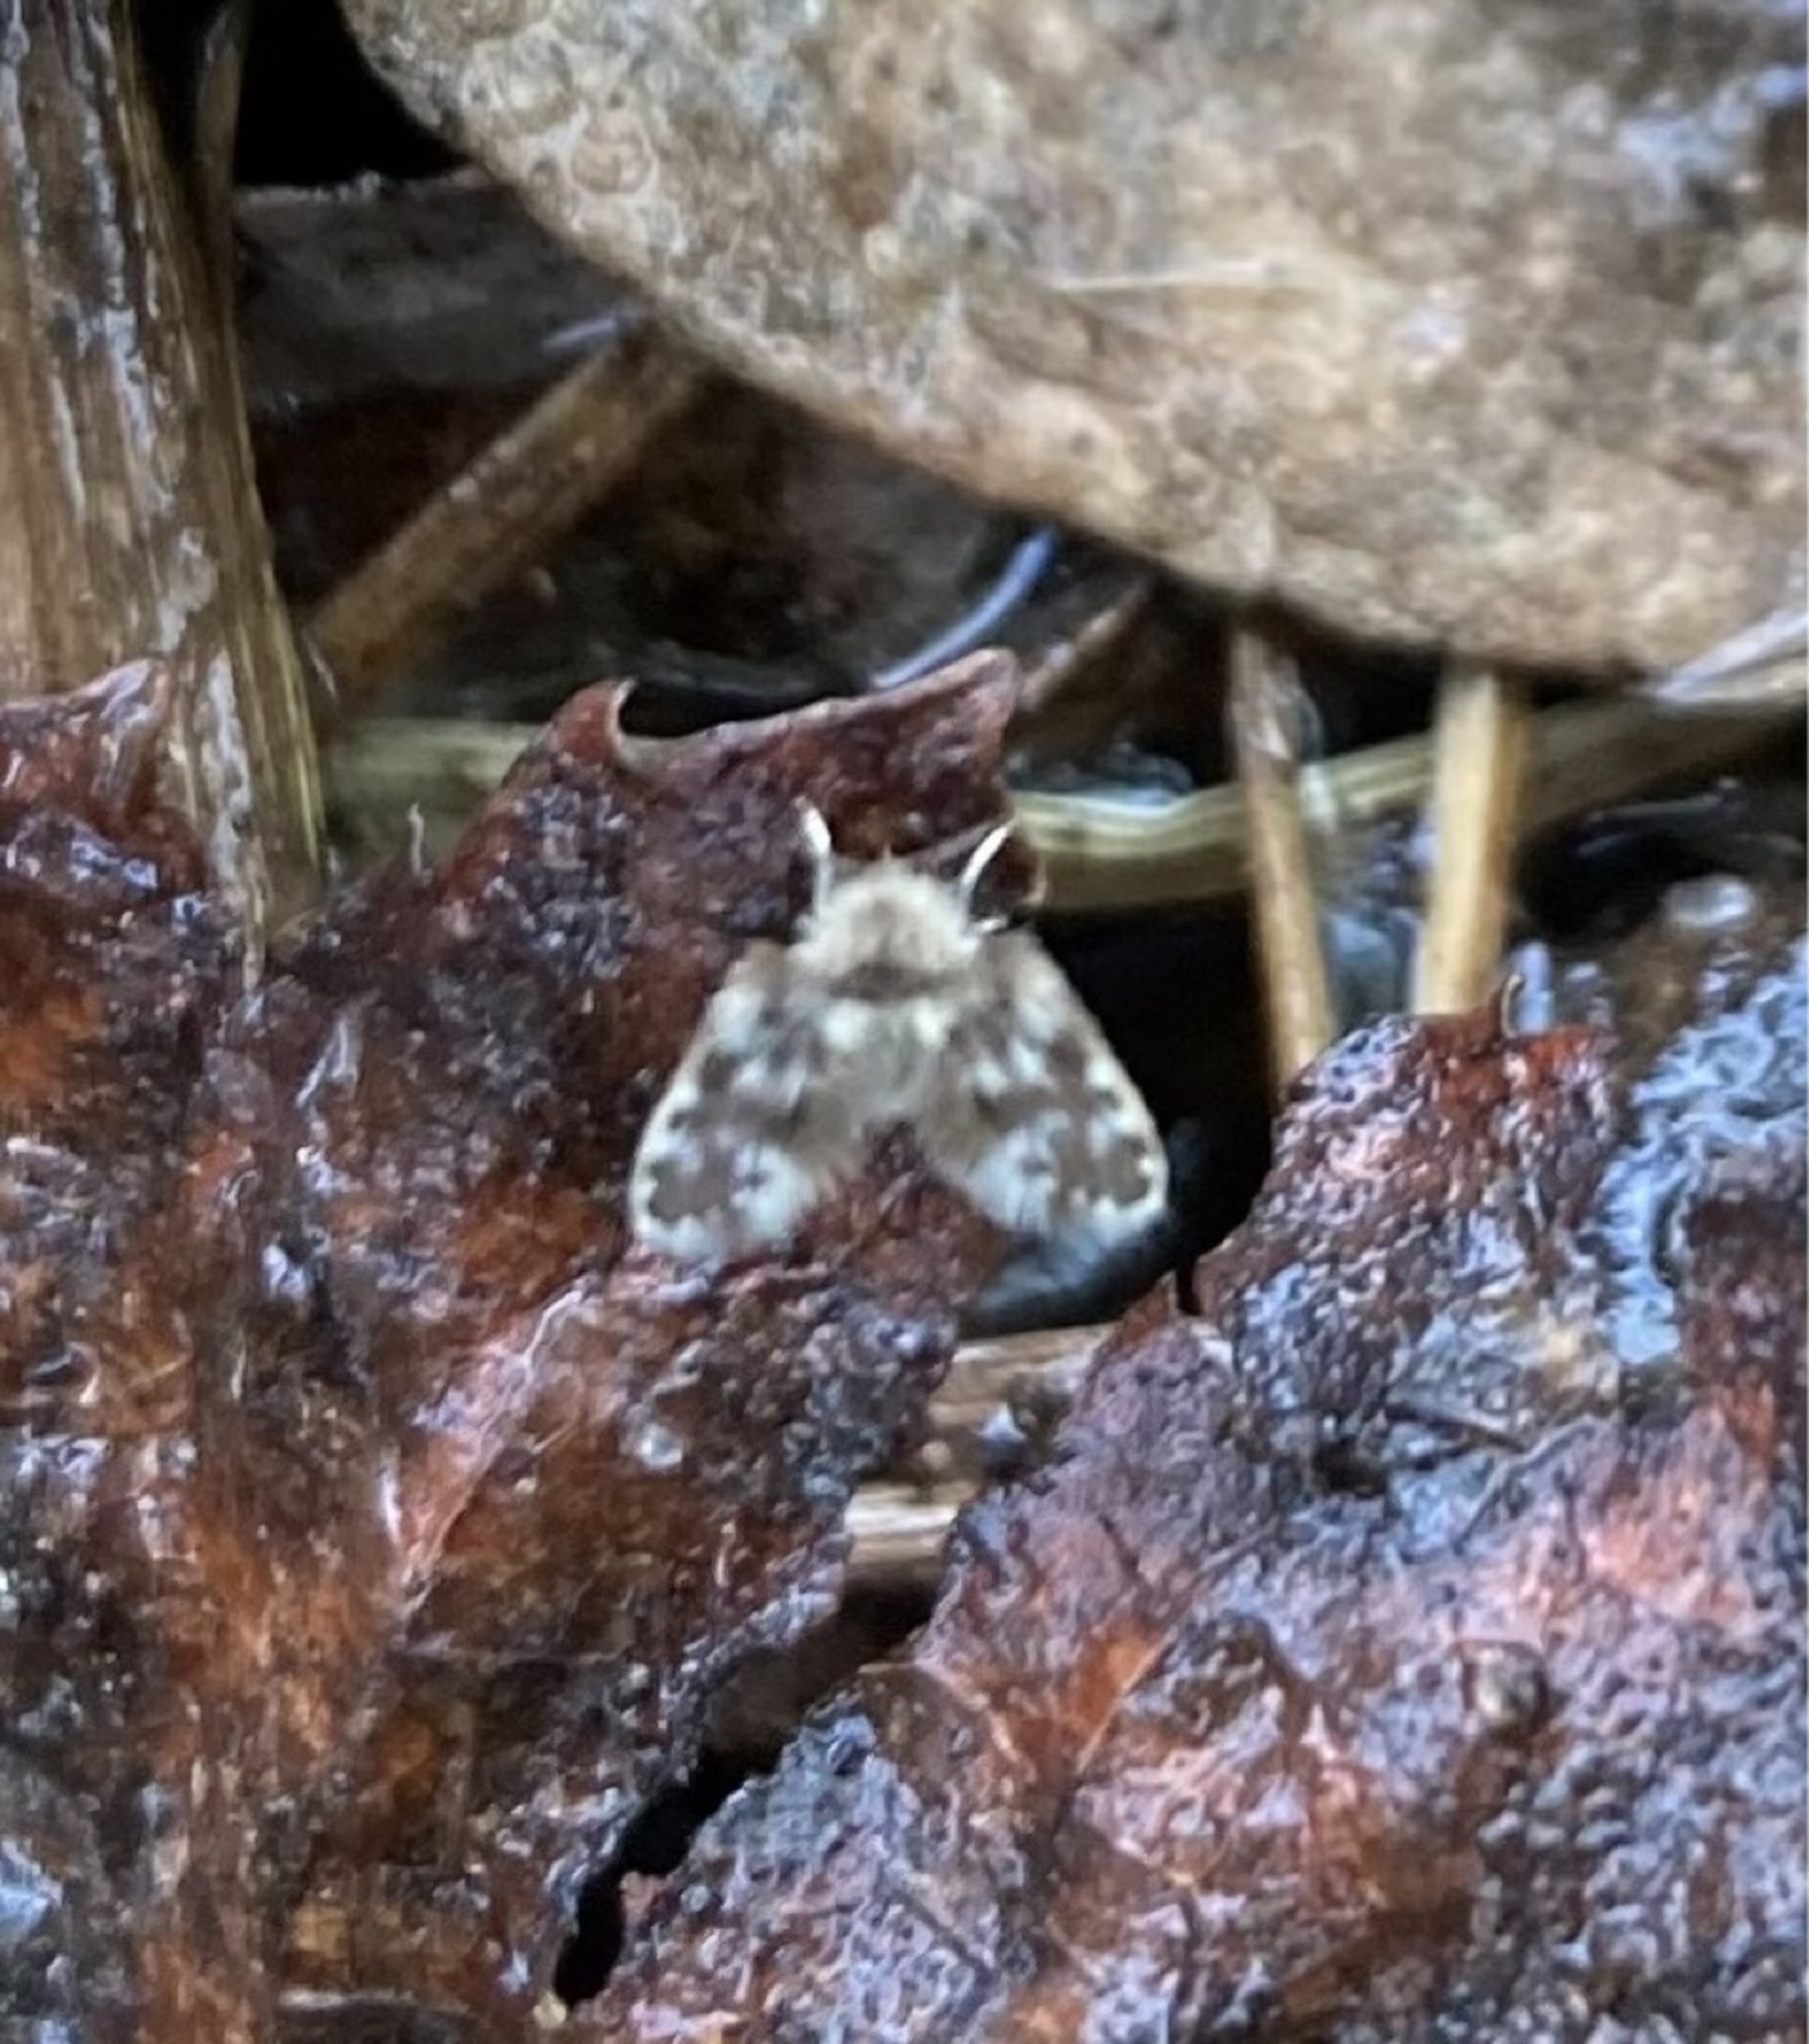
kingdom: Animalia
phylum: Arthropoda
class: Insecta
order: Diptera
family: Psychodidae
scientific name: Psychodidae
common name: Sommerfuglemyg
